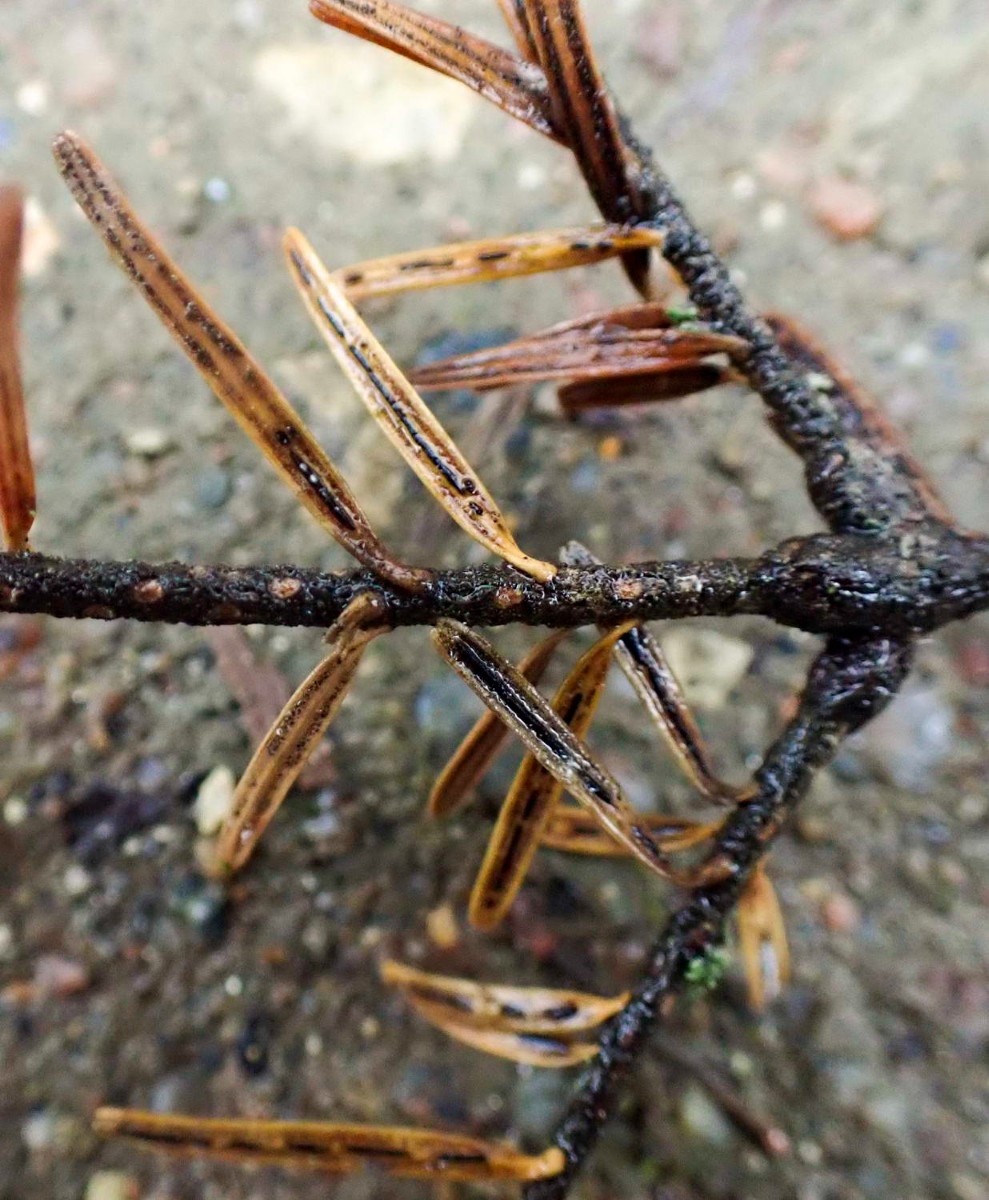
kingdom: Fungi
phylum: Ascomycota
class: Leotiomycetes
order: Rhytismatales
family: Rhytismataceae
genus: Lirula
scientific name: Lirula nervisequia
